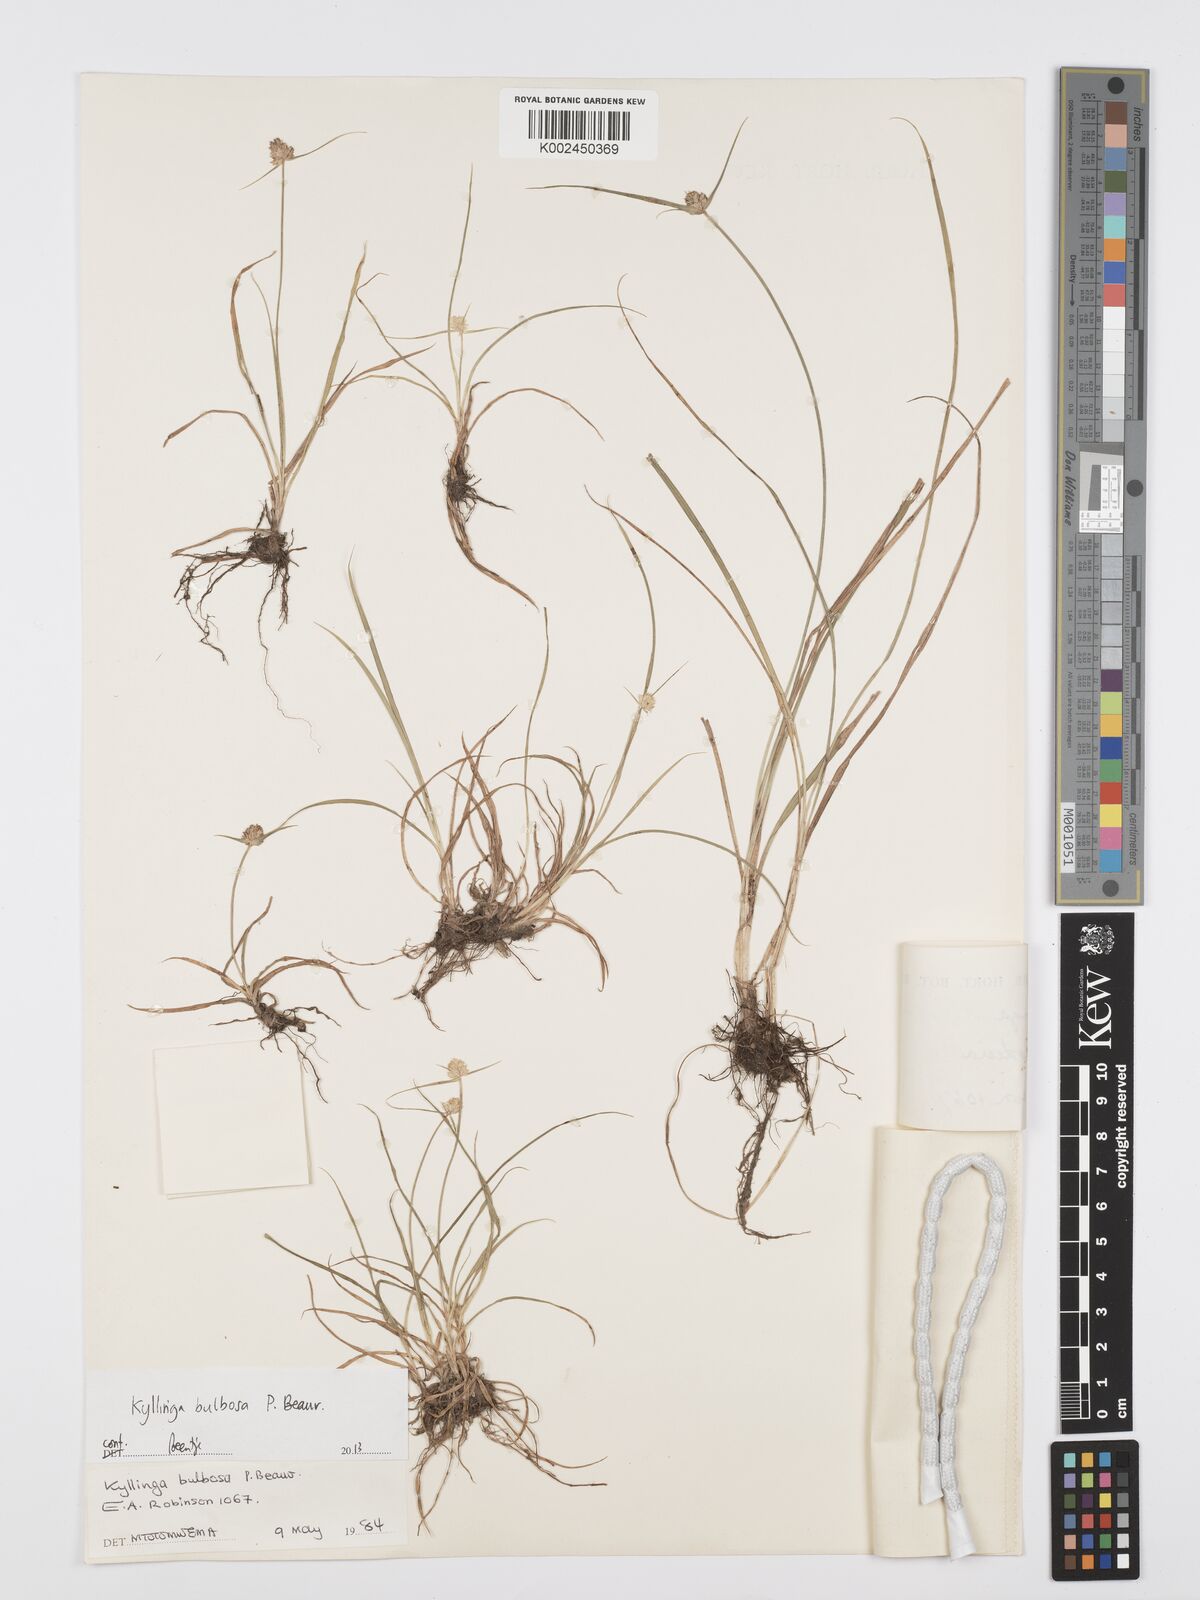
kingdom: Plantae
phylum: Tracheophyta
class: Liliopsida
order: Poales
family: Cyperaceae
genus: Cyperus
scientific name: Cyperus
